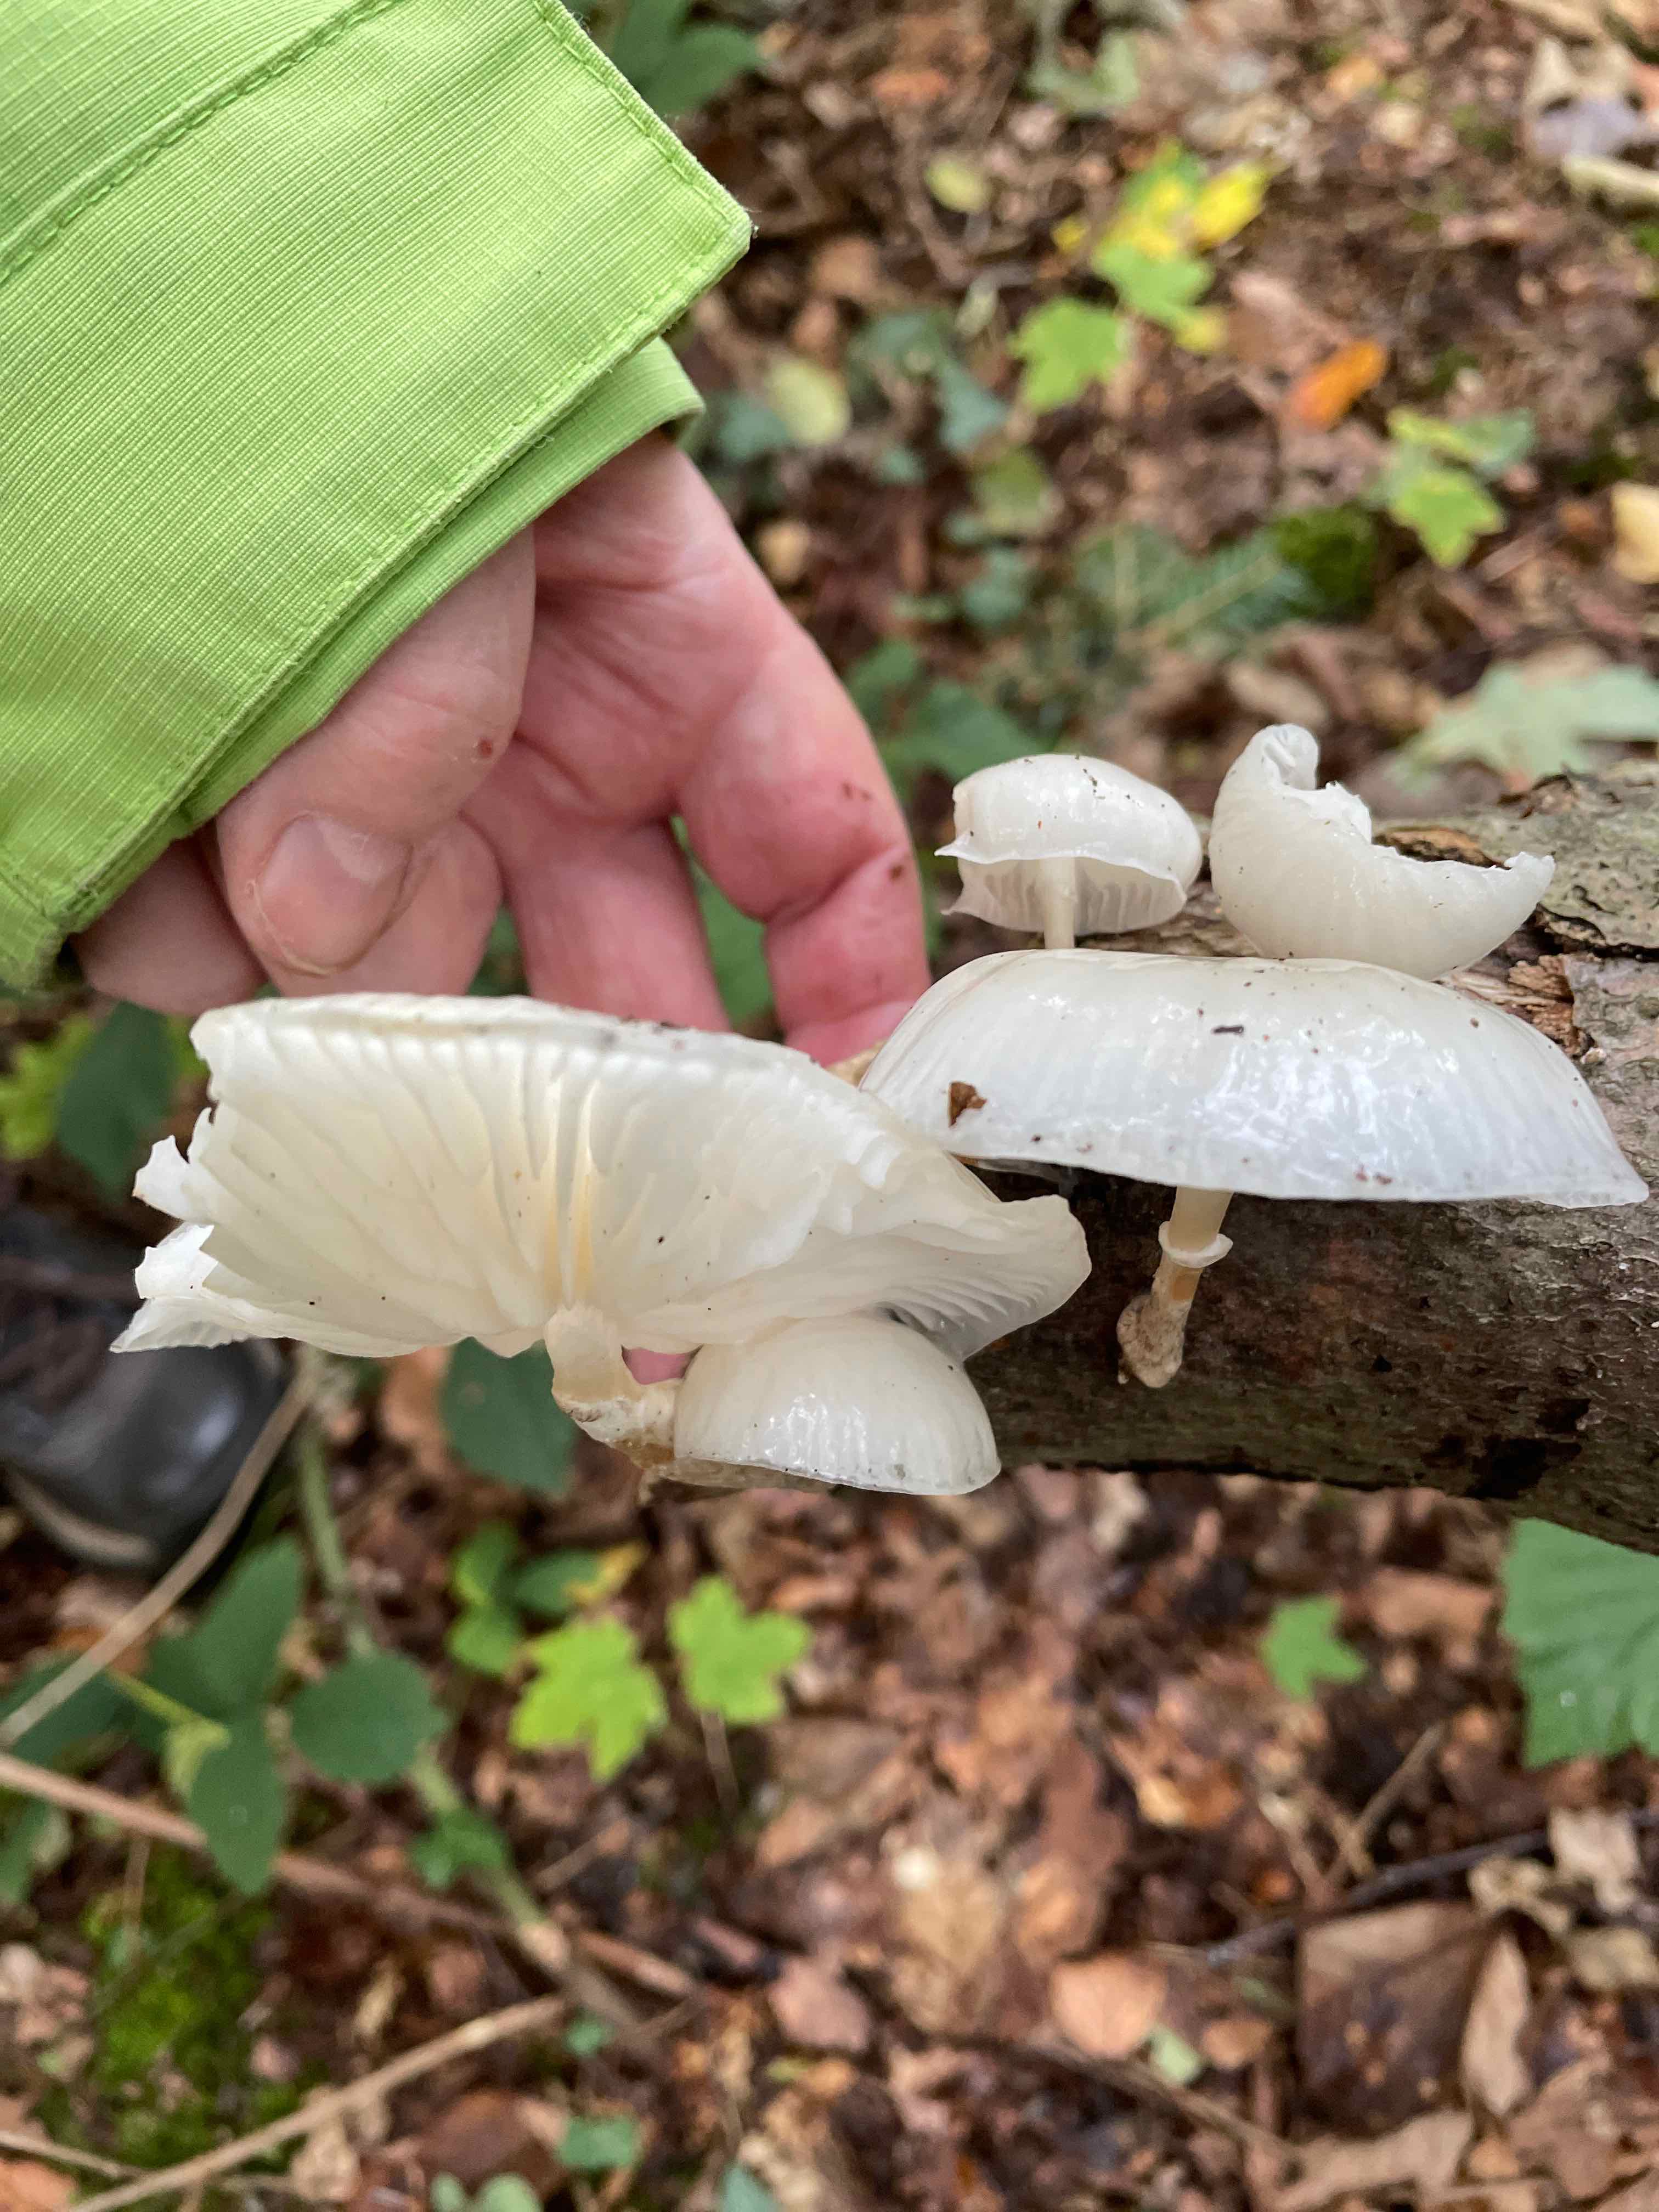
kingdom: Fungi
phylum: Basidiomycota
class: Agaricomycetes
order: Agaricales
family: Physalacriaceae
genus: Mucidula
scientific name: Mucidula mucida
